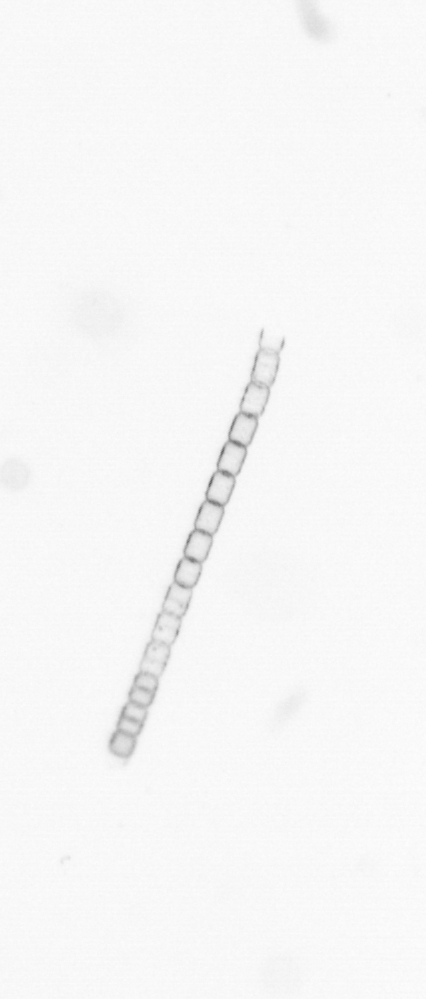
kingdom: Chromista
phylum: Ochrophyta
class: Bacillariophyceae
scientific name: Bacillariophyceae
